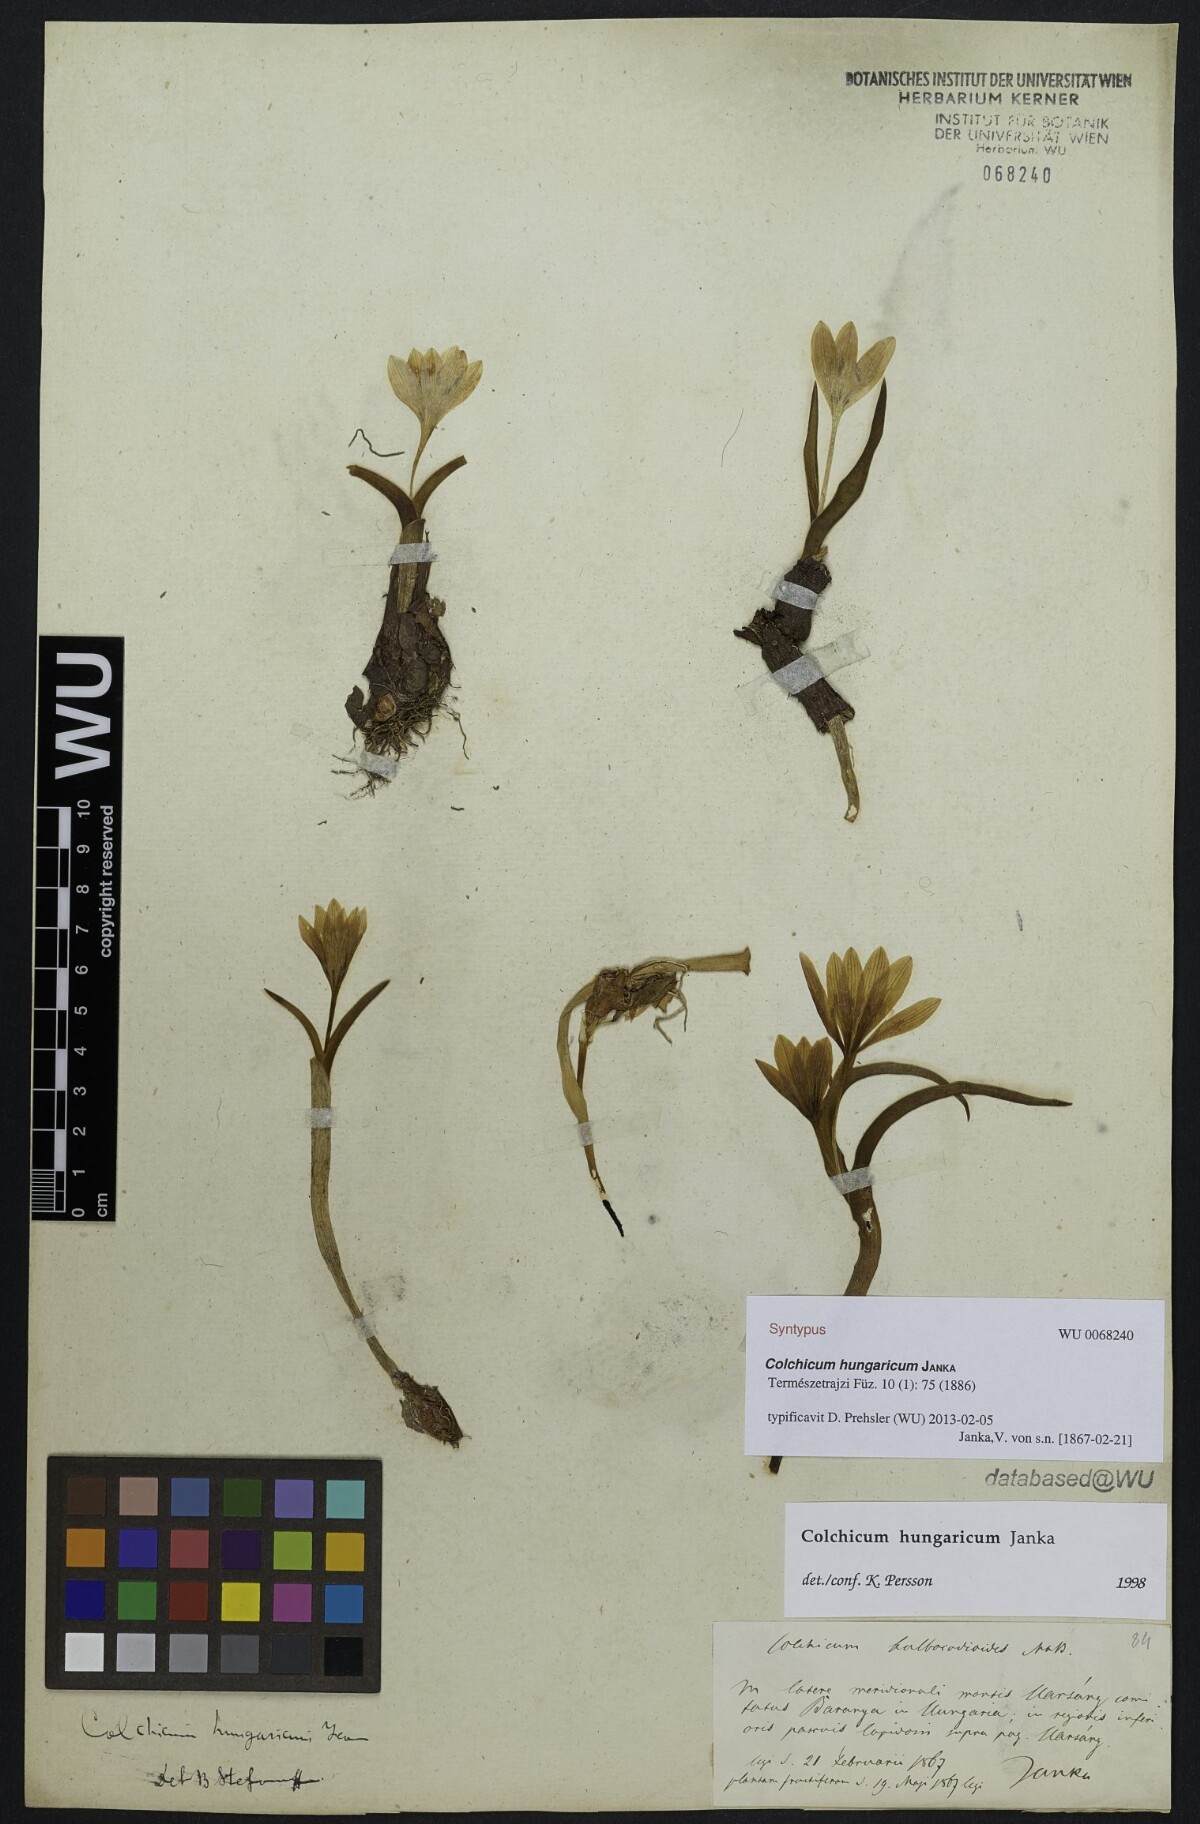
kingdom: Plantae
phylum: Tracheophyta
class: Liliopsida
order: Liliales
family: Colchicaceae
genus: Colchicum
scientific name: Colchicum hungaricum
